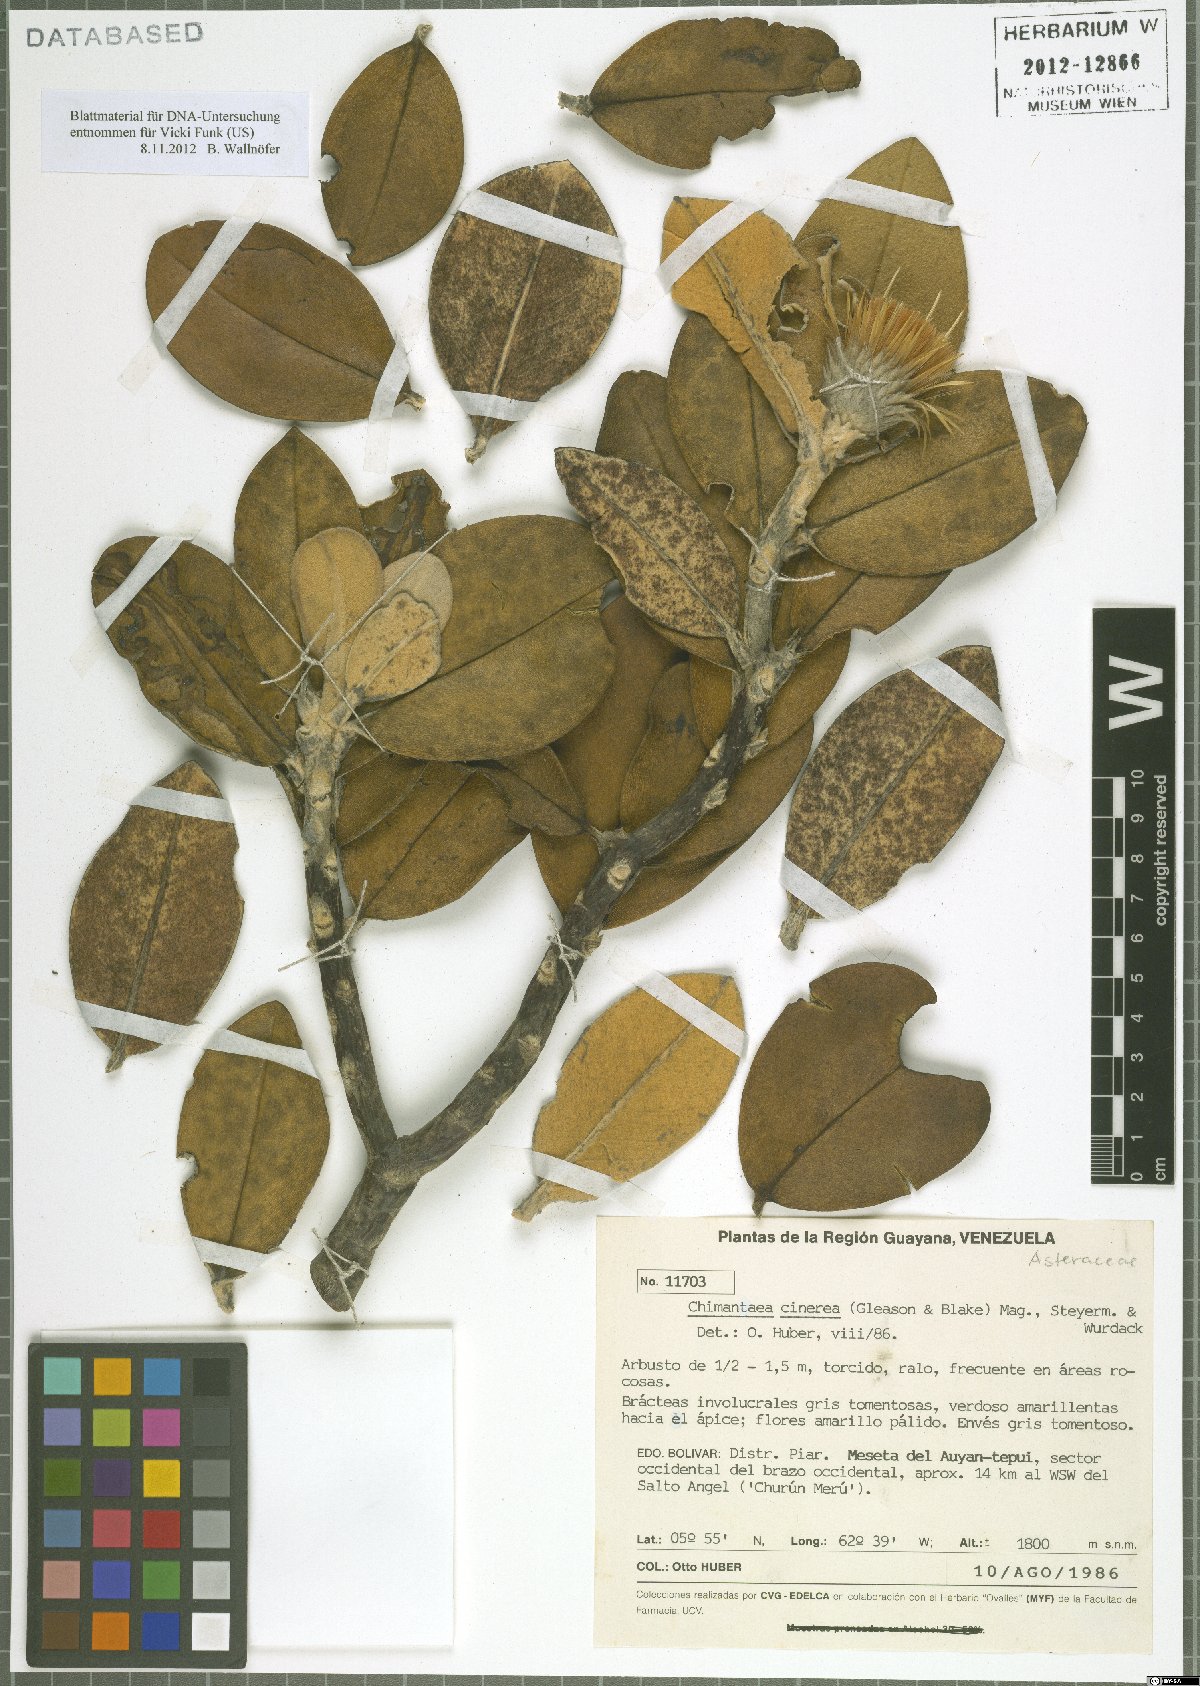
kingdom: Plantae
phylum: Tracheophyta
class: Magnoliopsida
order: Asterales
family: Asteraceae
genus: Chimantaea
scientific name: Chimantaea cinerea
